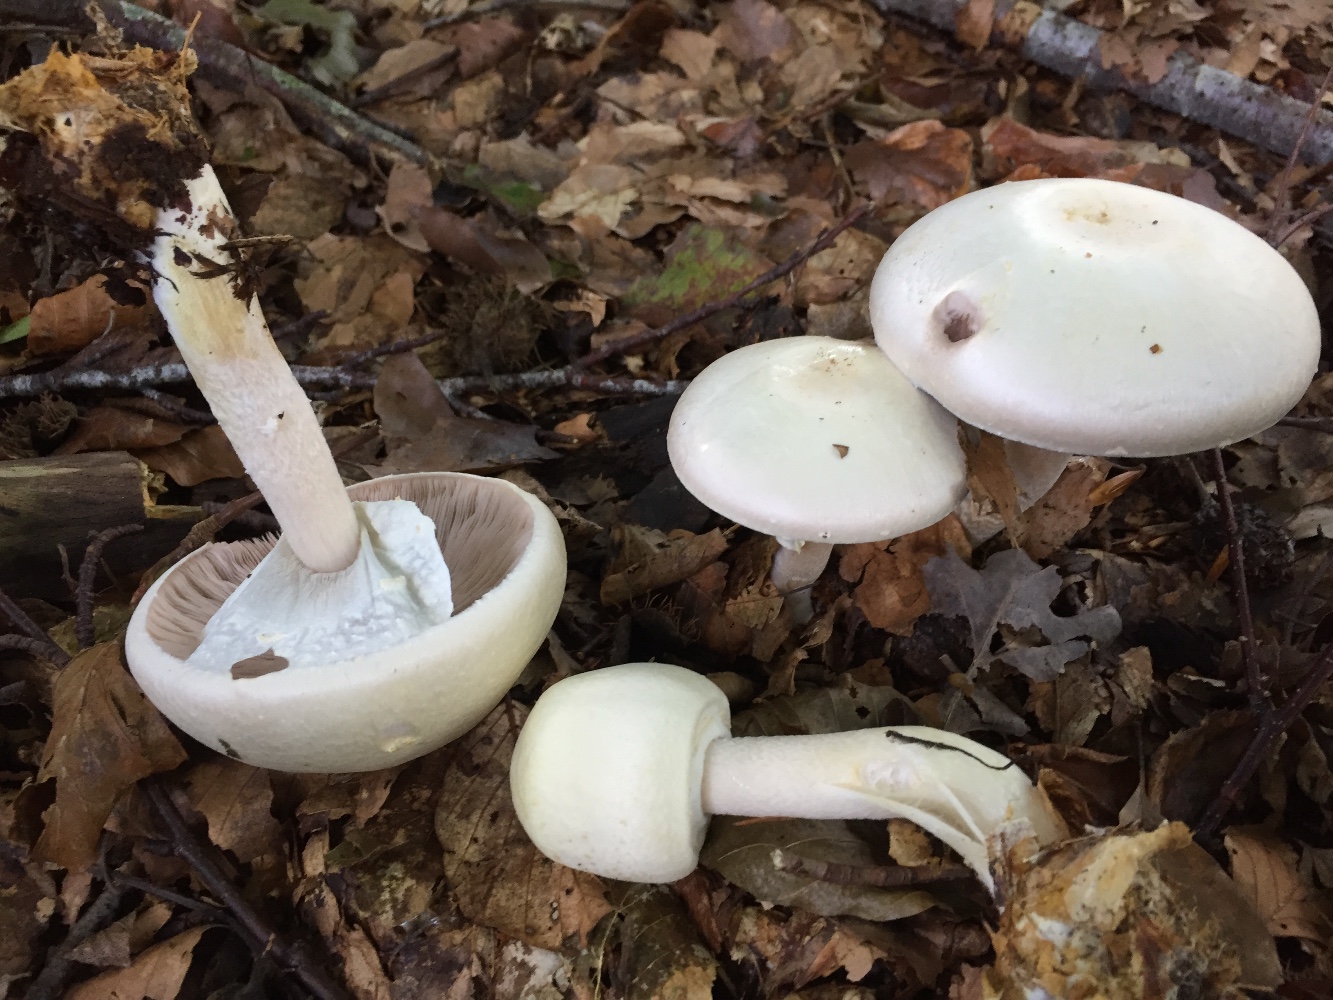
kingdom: Fungi
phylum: Basidiomycota
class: Agaricomycetes
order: Agaricales
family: Agaricaceae
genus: Agaricus
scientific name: Agaricus sylvicola
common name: gulhvid champignon
